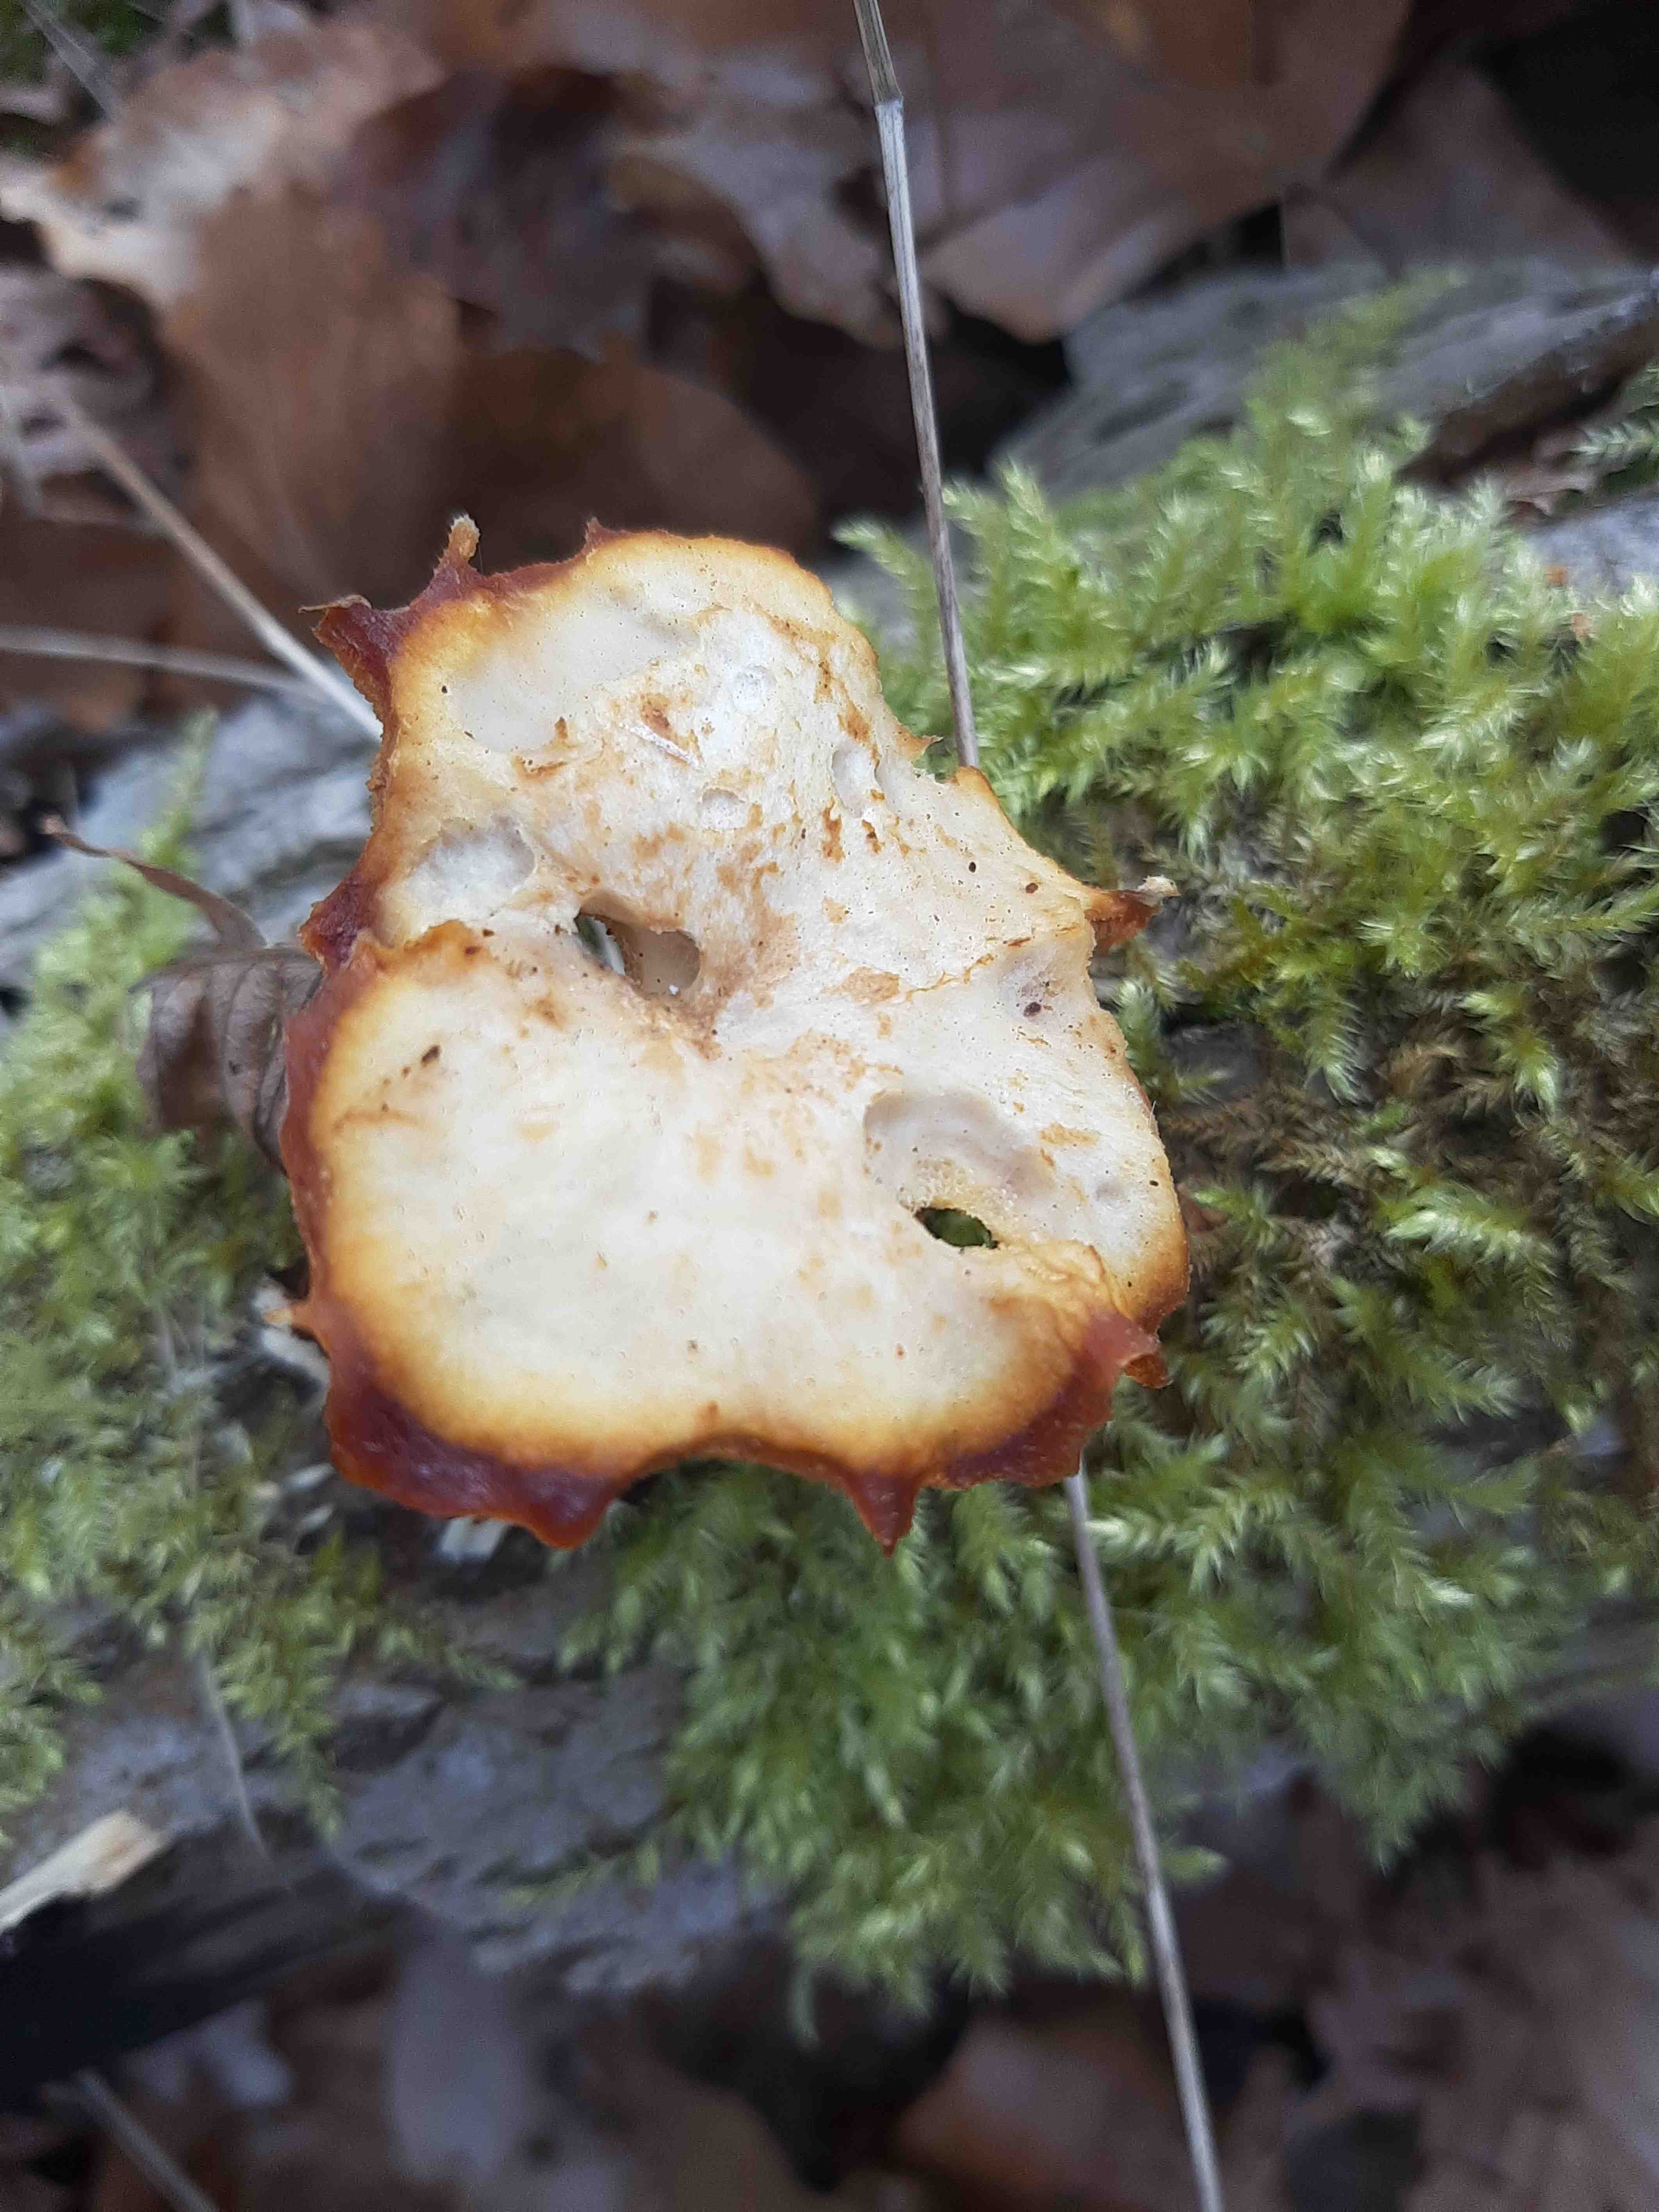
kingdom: Fungi
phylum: Basidiomycota
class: Agaricomycetes
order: Polyporales
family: Polyporaceae
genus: Lentinus
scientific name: Lentinus brumalis
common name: vinter-stilkporesvamp
